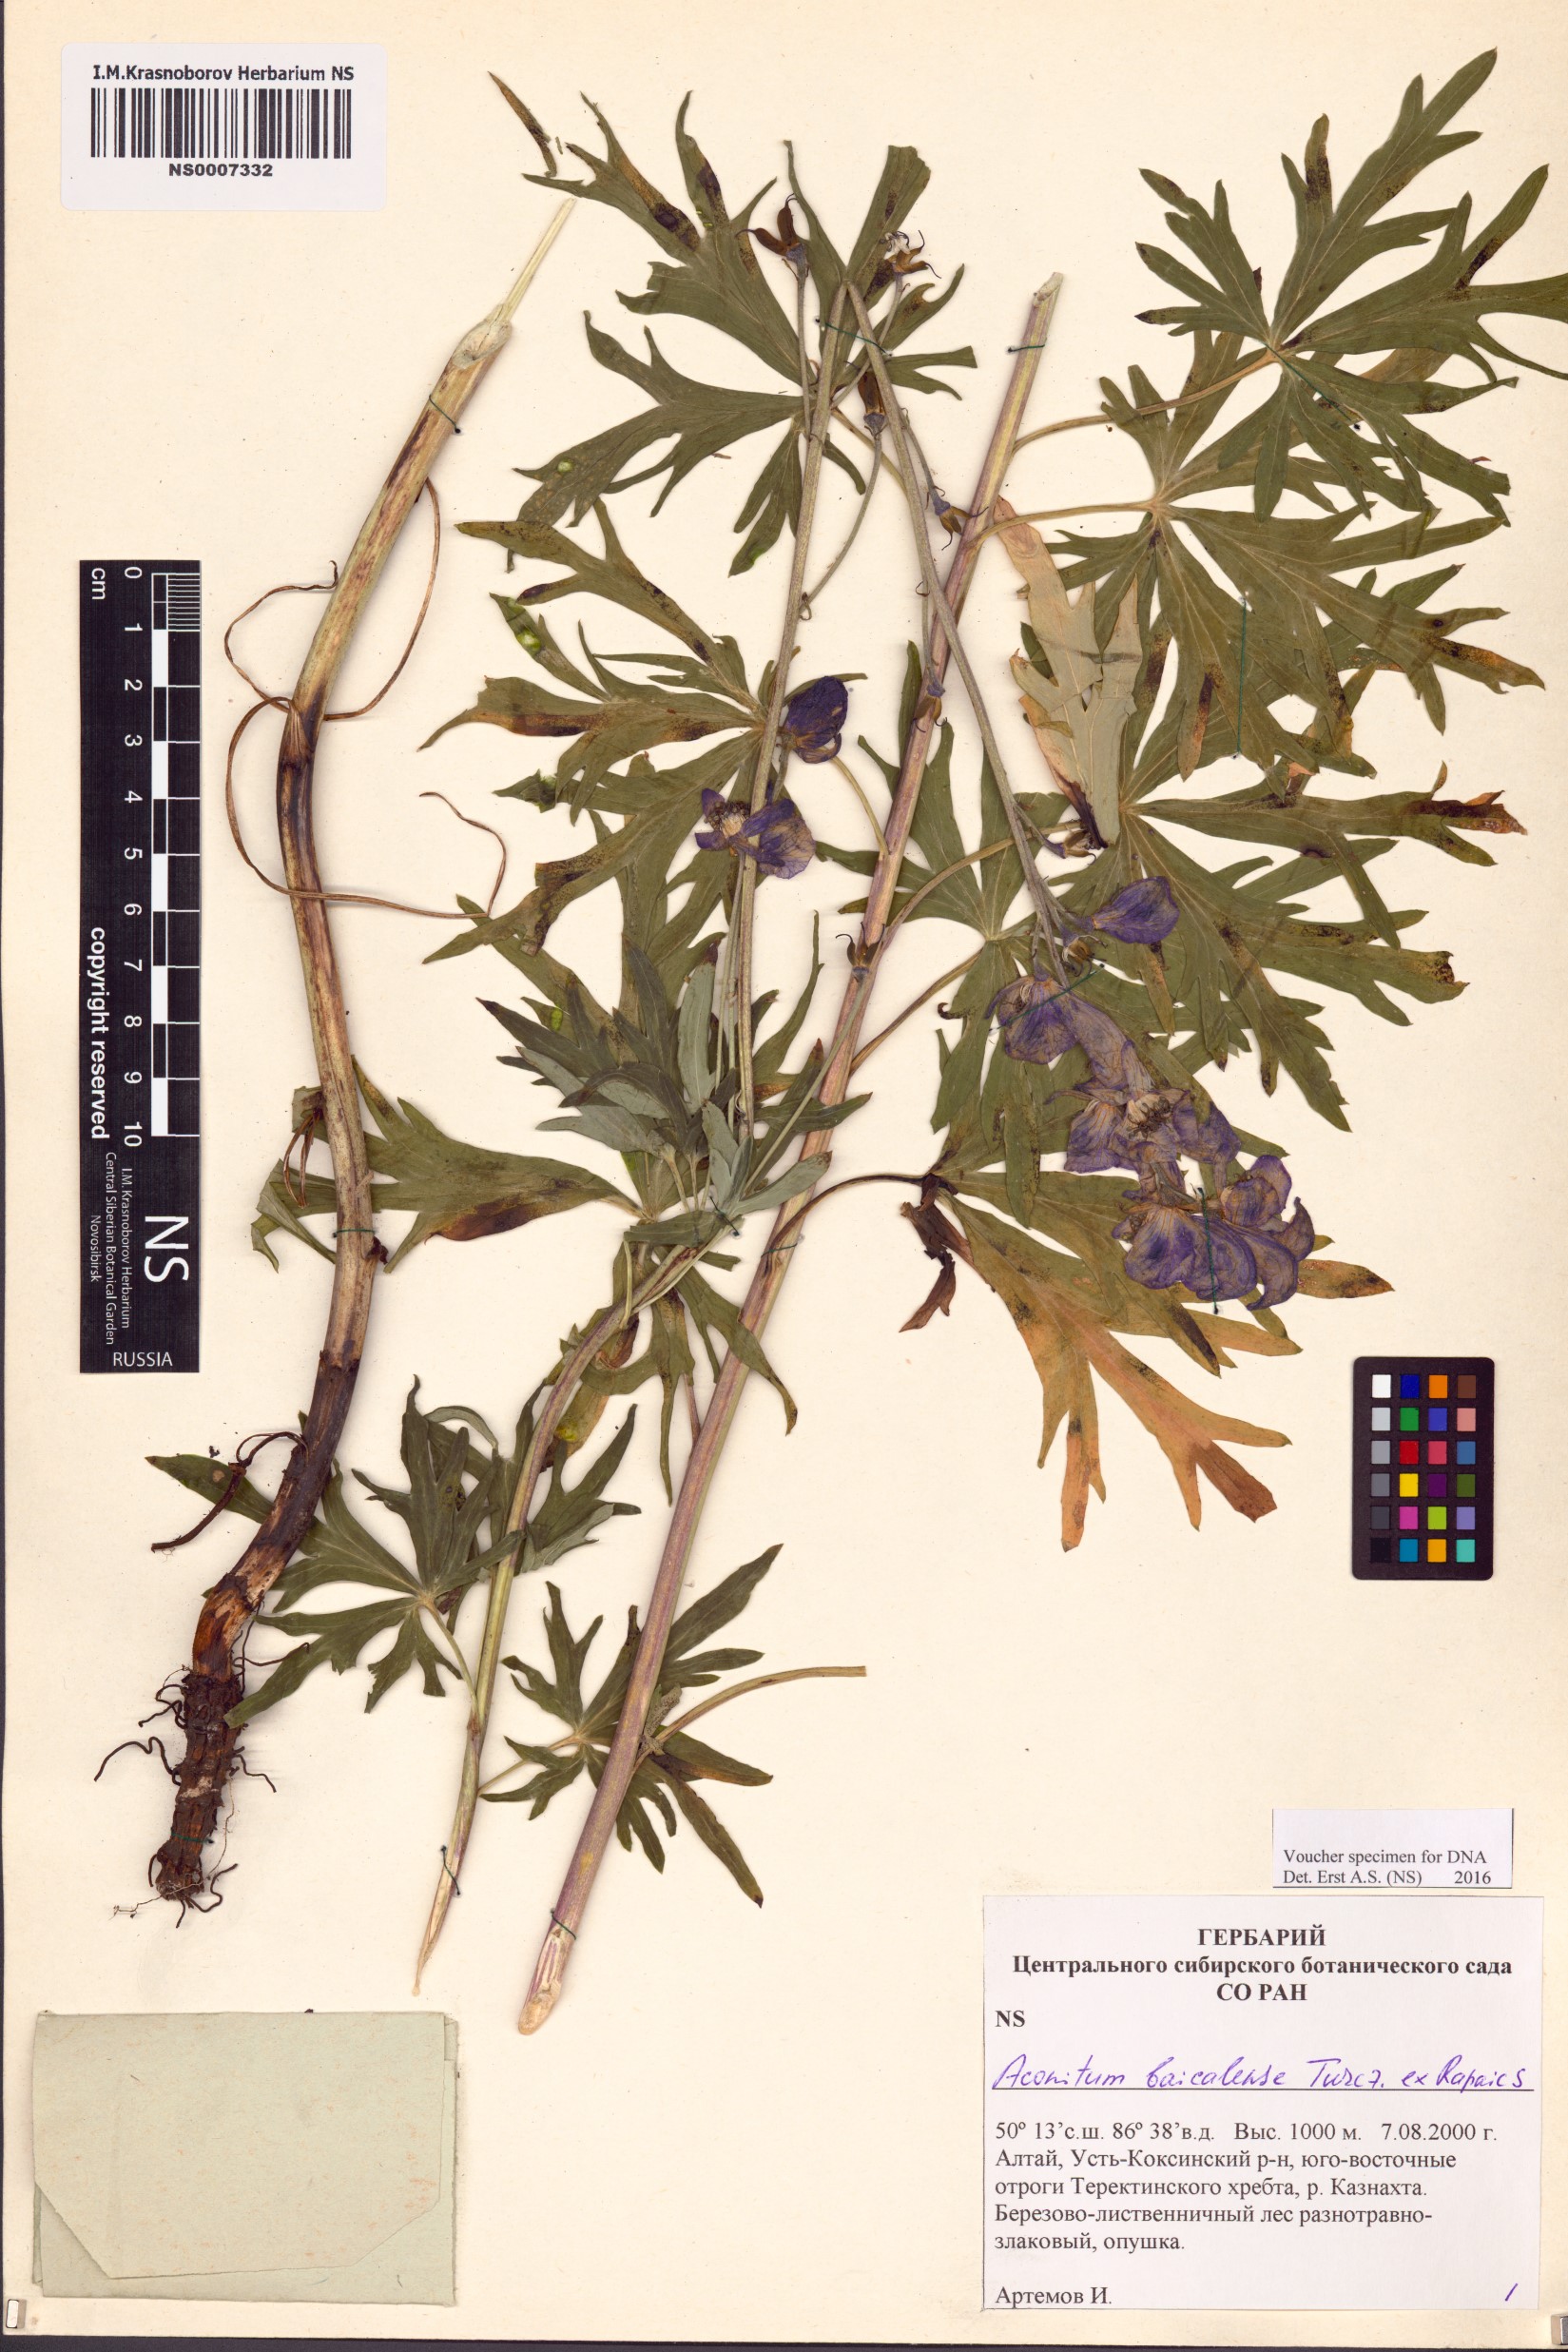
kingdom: Plantae
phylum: Tracheophyta
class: Magnoliopsida
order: Ranunculales
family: Ranunculaceae
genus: Aconitum
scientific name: Aconitum ambiguum
